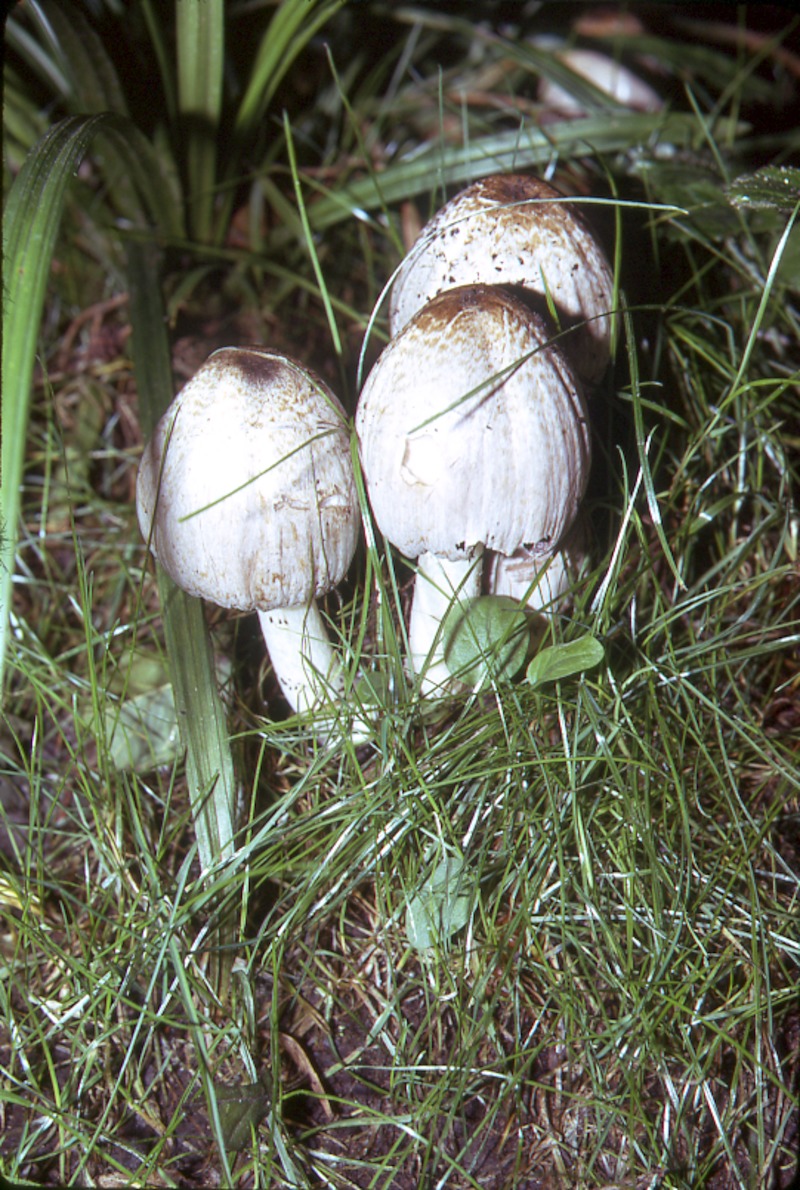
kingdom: Fungi
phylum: Basidiomycota
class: Agaricomycetes
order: Agaricales
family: Psathyrellaceae
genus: Coprinopsis
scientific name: Coprinopsis atramentaria
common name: Common ink-cap
